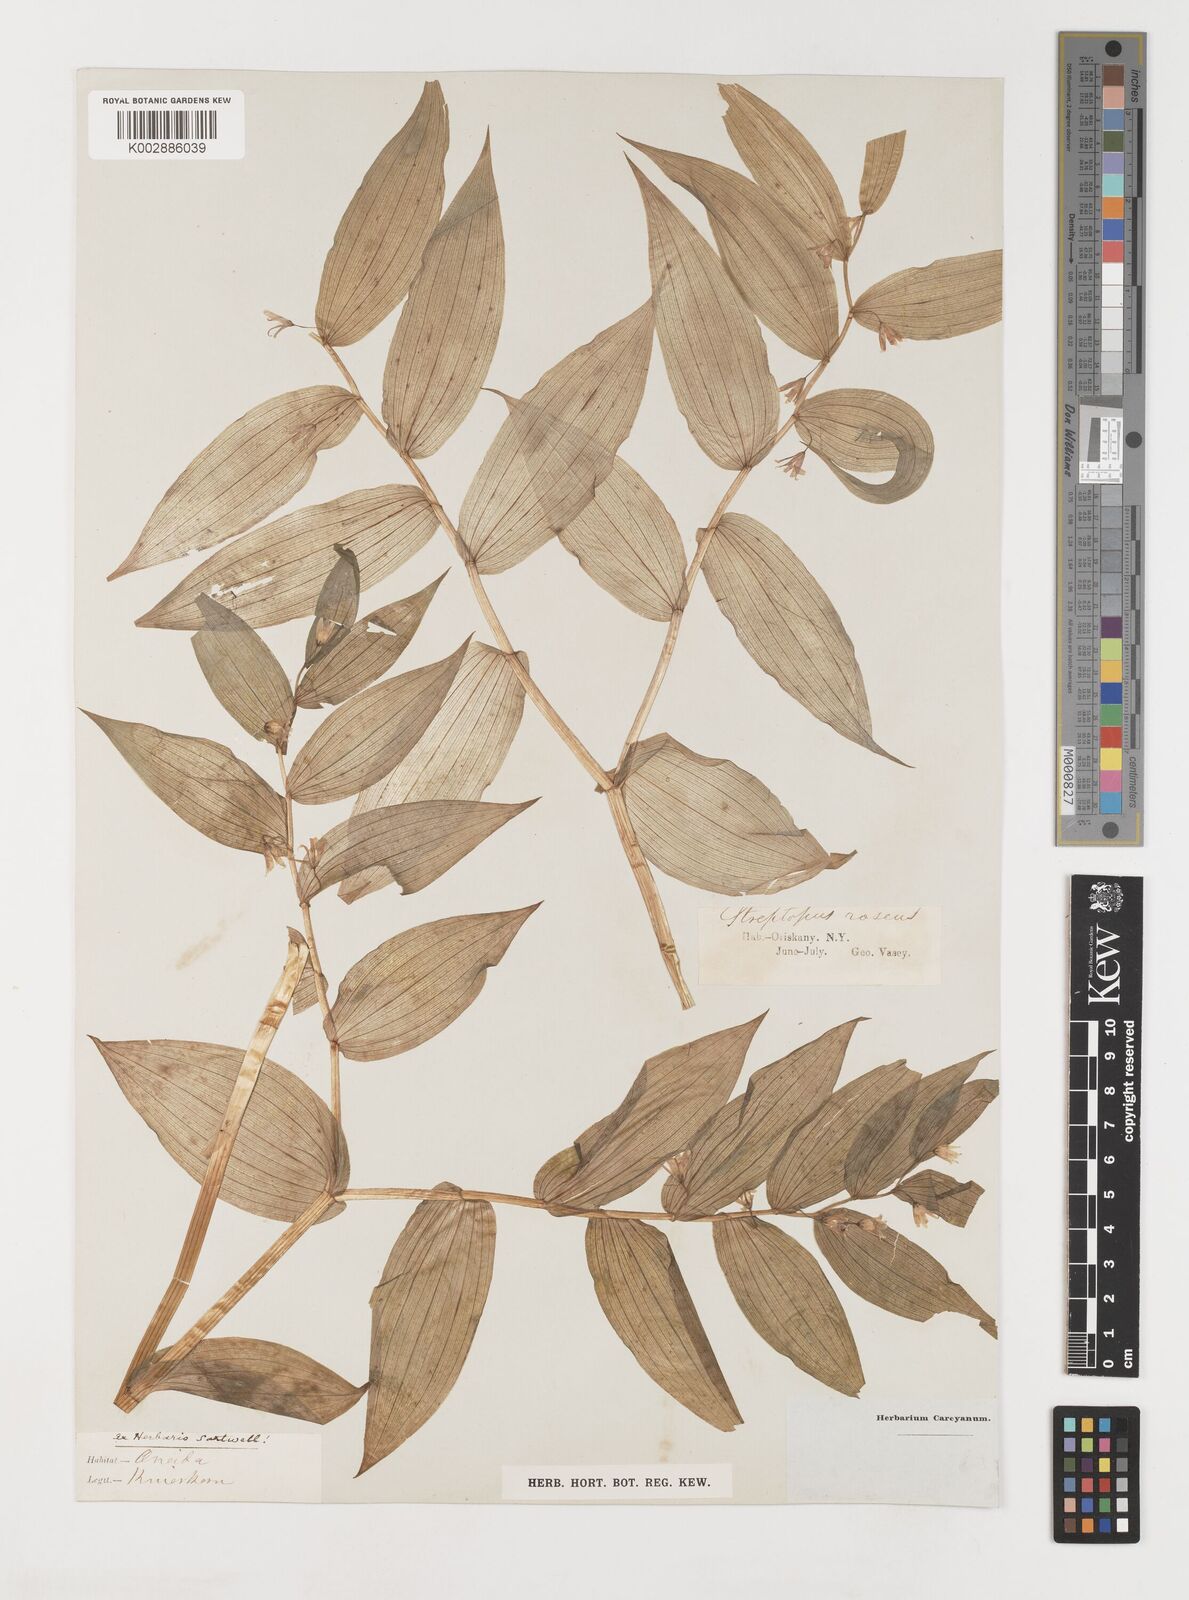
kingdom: Plantae
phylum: Tracheophyta
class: Liliopsida
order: Liliales
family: Liliaceae
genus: Streptopus
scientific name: Streptopus lanceolatus
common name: Rose mandarin
